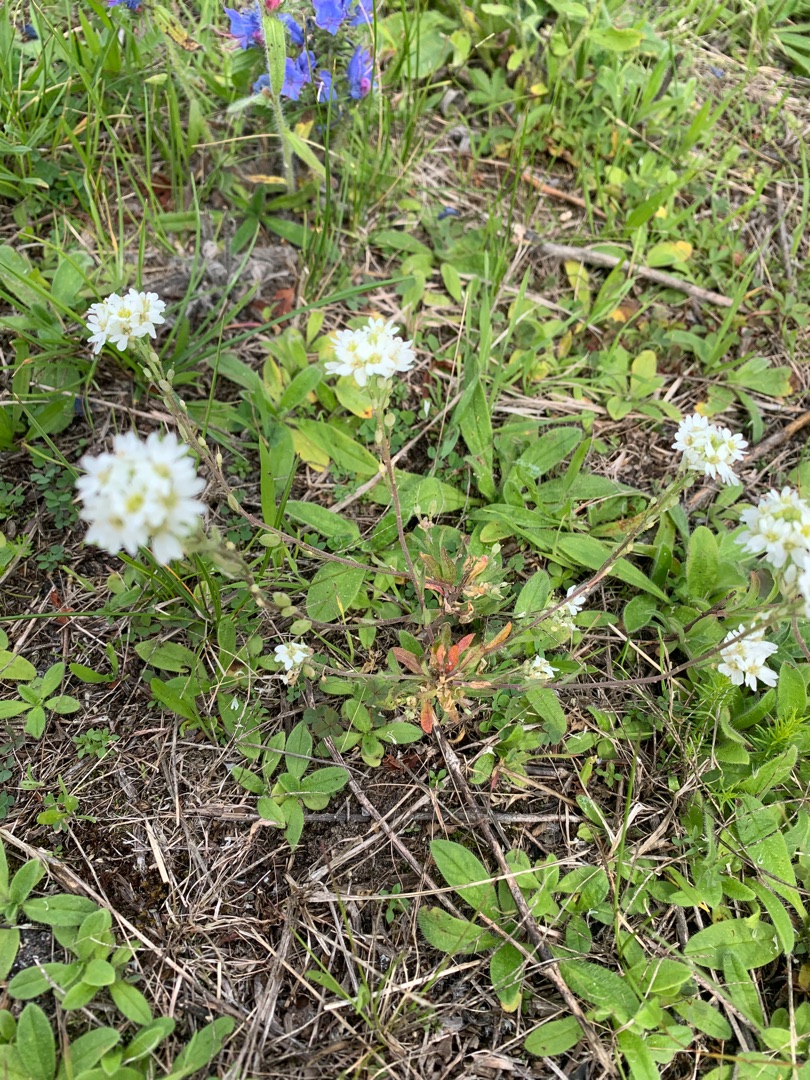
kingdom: Plantae
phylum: Tracheophyta
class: Magnoliopsida
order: Brassicales
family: Brassicaceae
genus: Berteroa
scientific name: Berteroa incana
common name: Kløvplade
